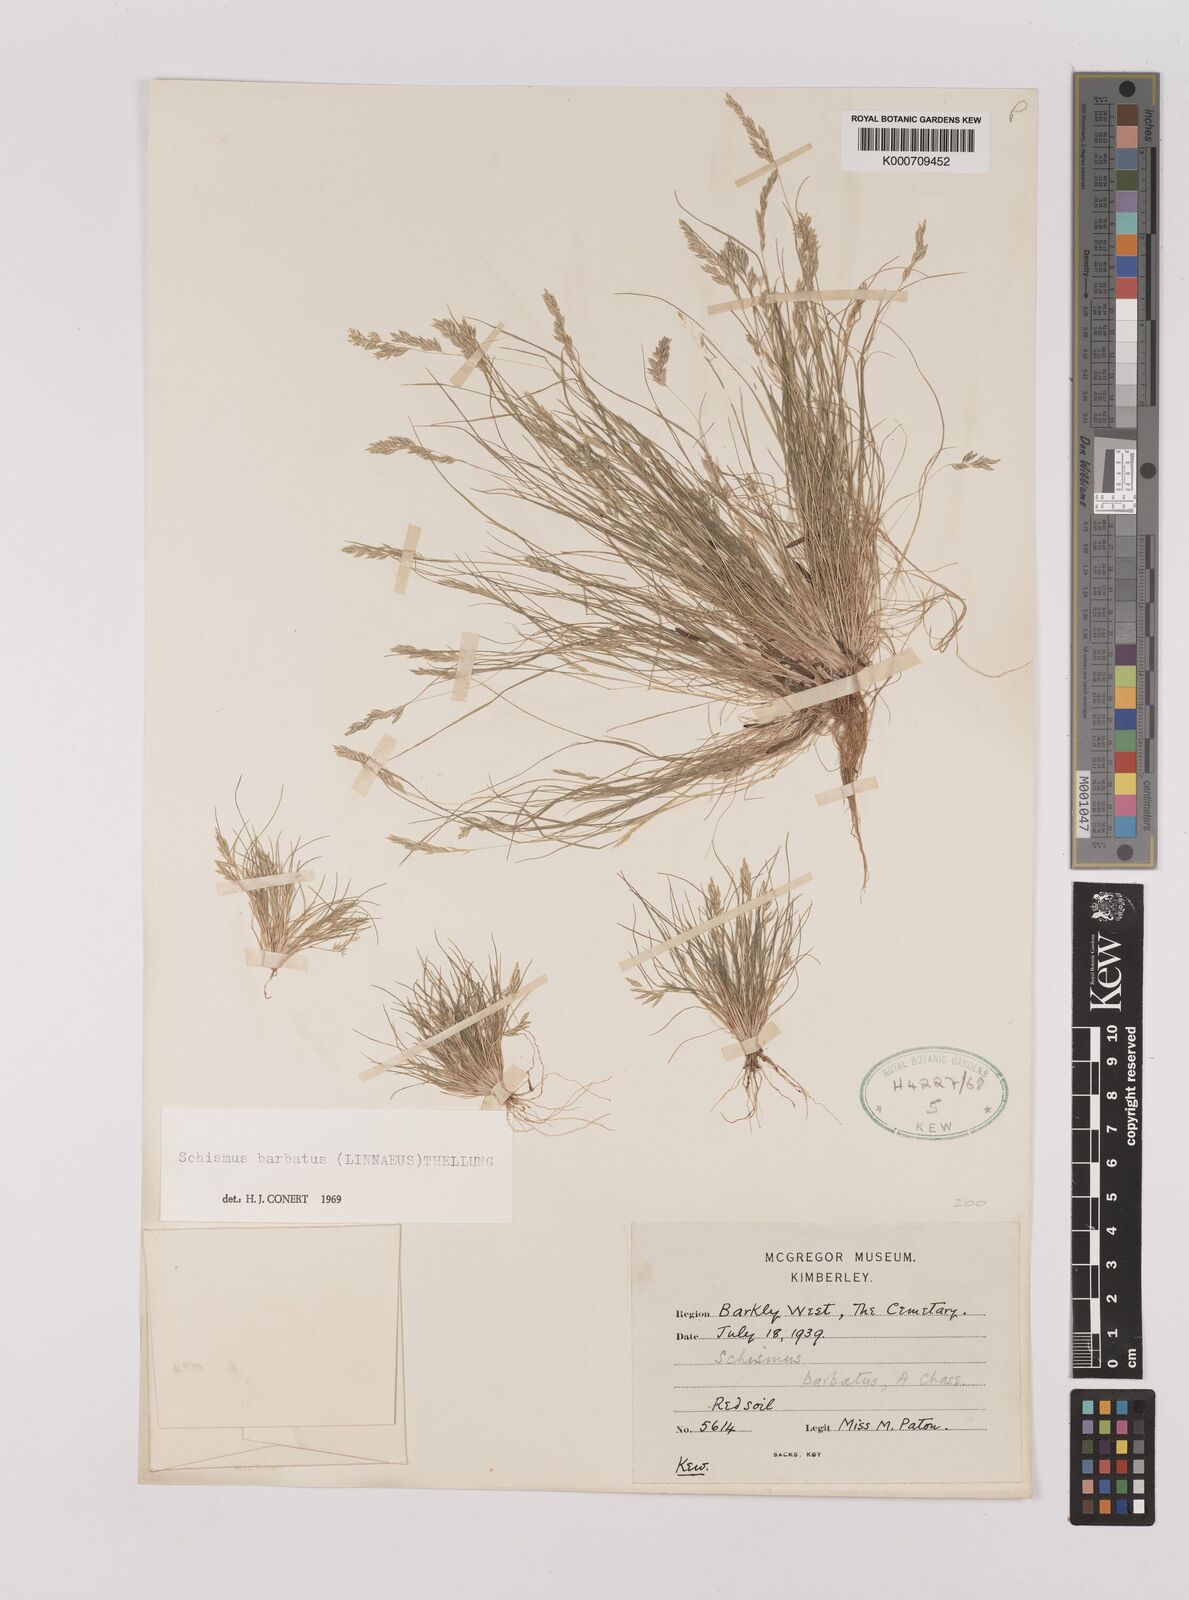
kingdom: Plantae
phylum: Tracheophyta
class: Liliopsida
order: Poales
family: Poaceae
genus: Schismus
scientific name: Schismus barbatus
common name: Kelch-grass
